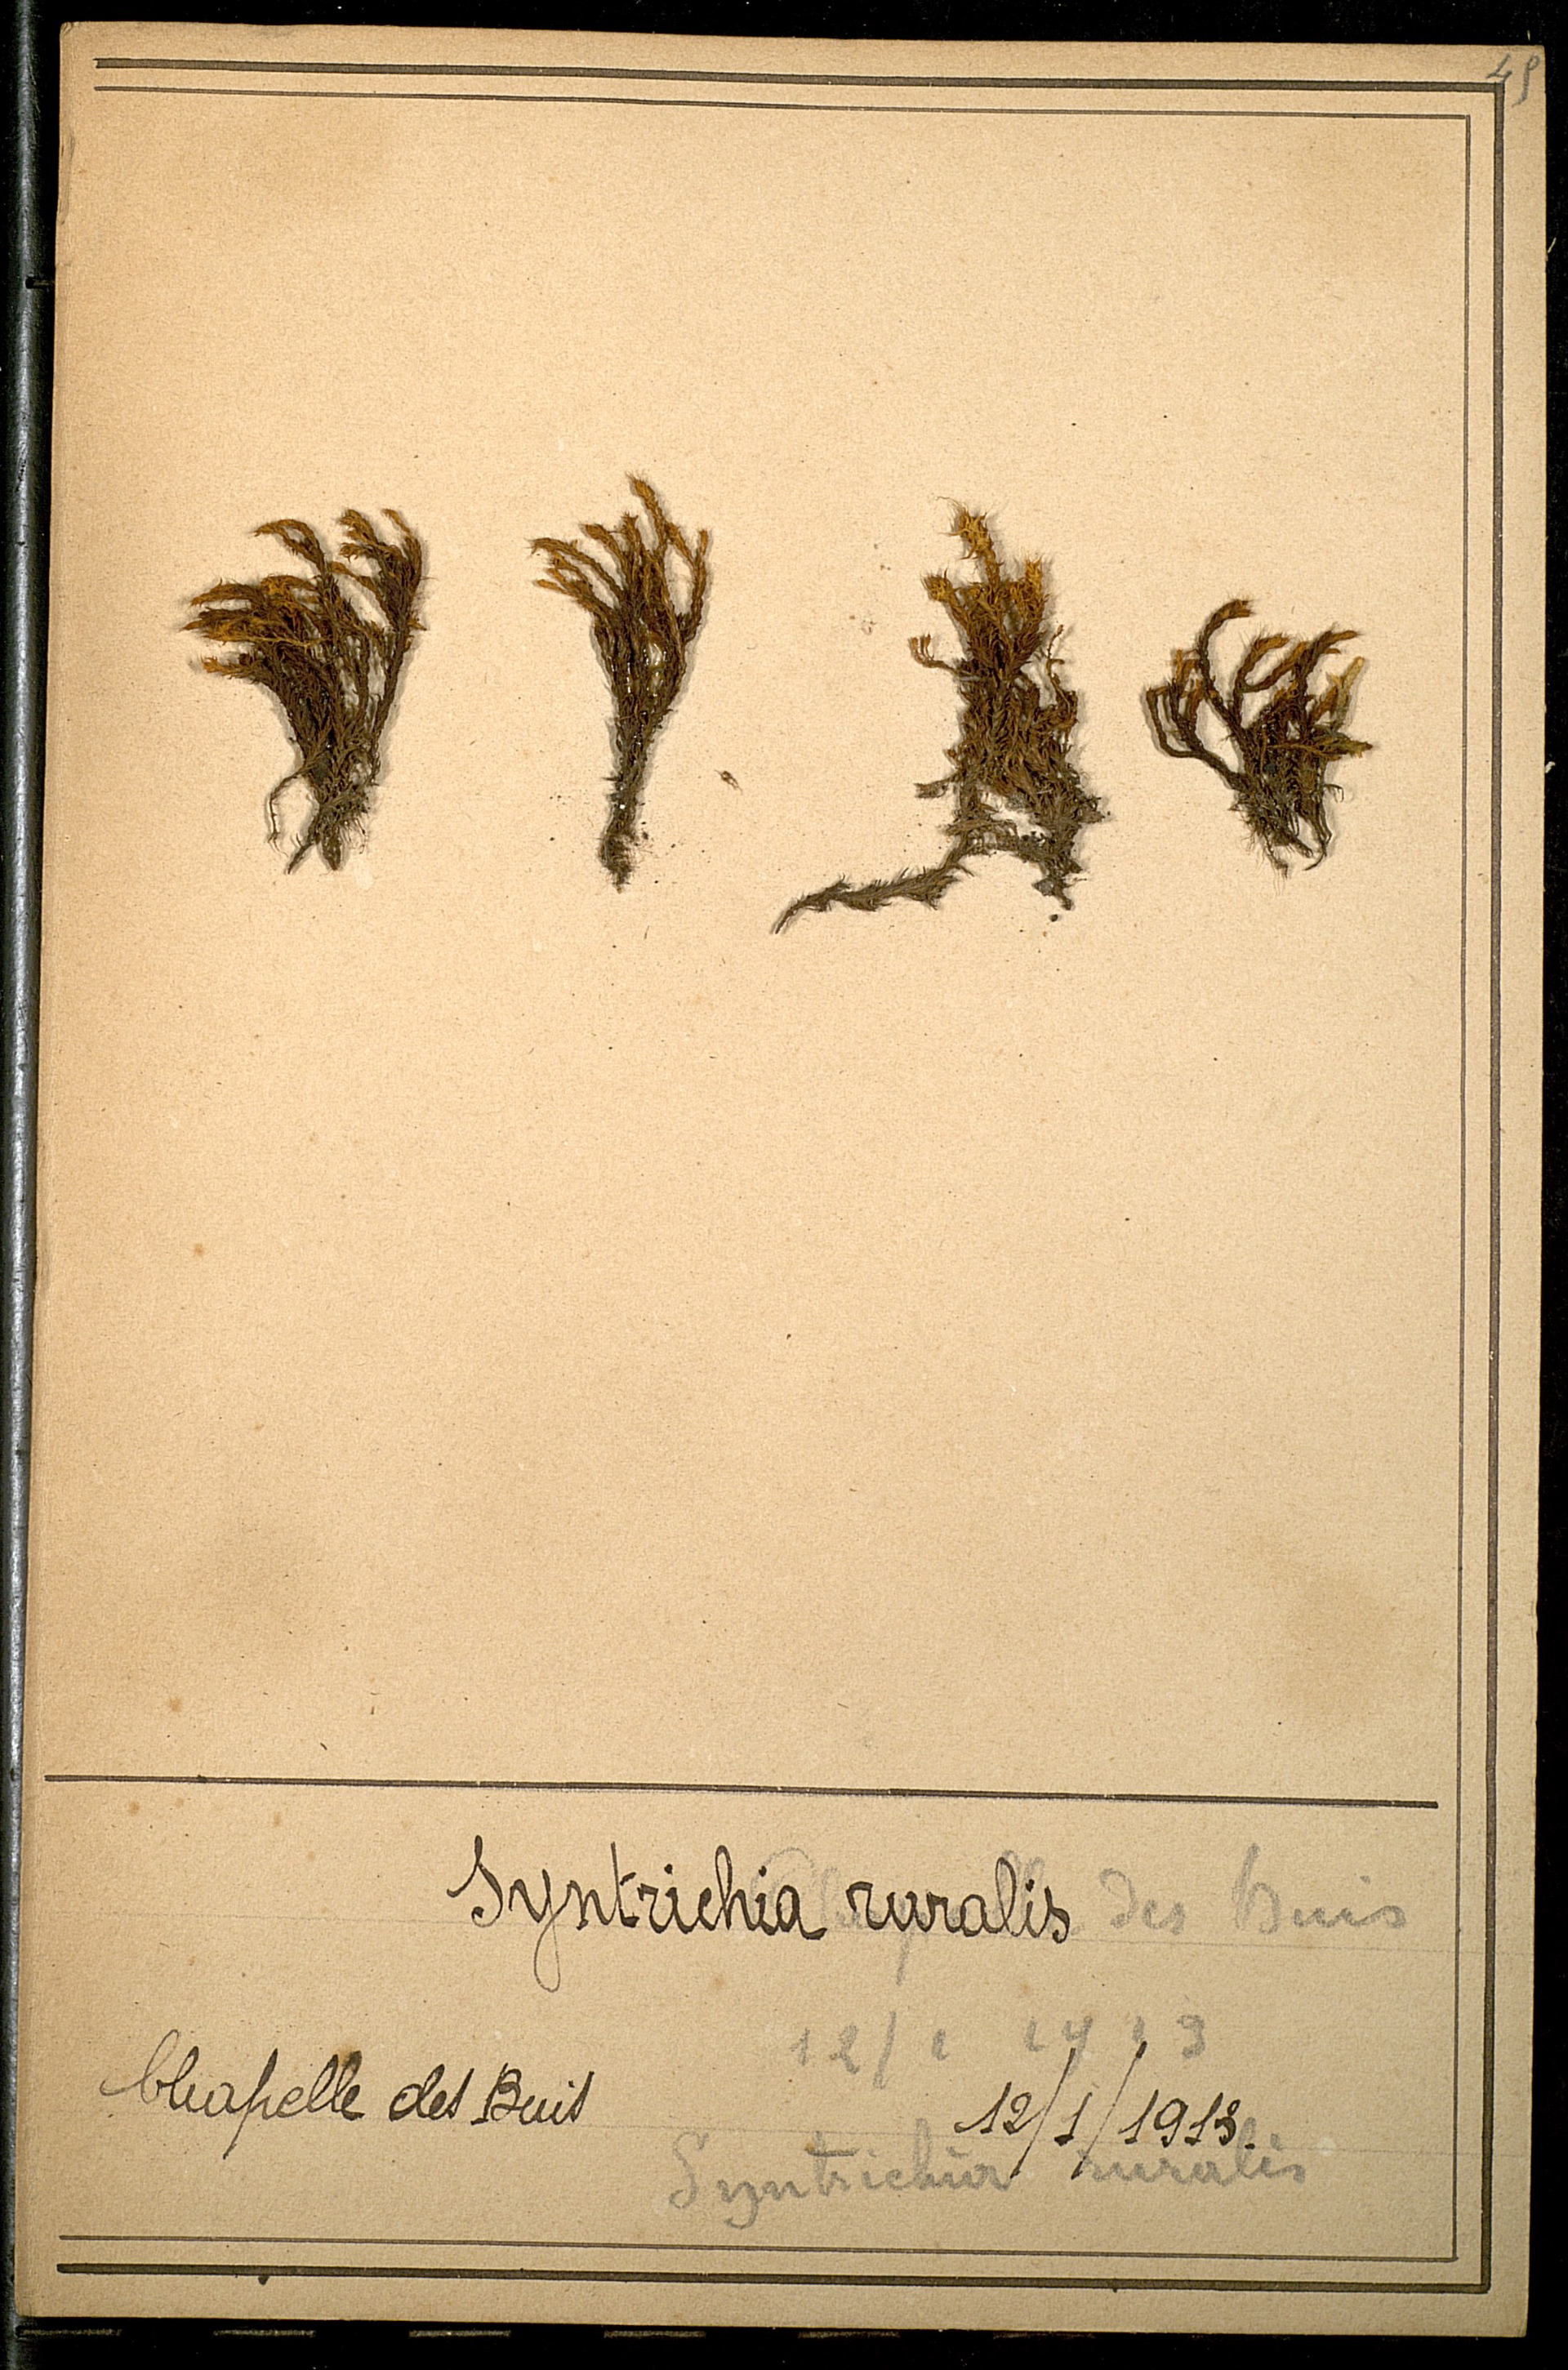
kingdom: Plantae
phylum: Bryophyta
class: Bryopsida
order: Pottiales
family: Pottiaceae
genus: Syntrichia
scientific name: Syntrichia ruralis
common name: Sidewalk screw moss
